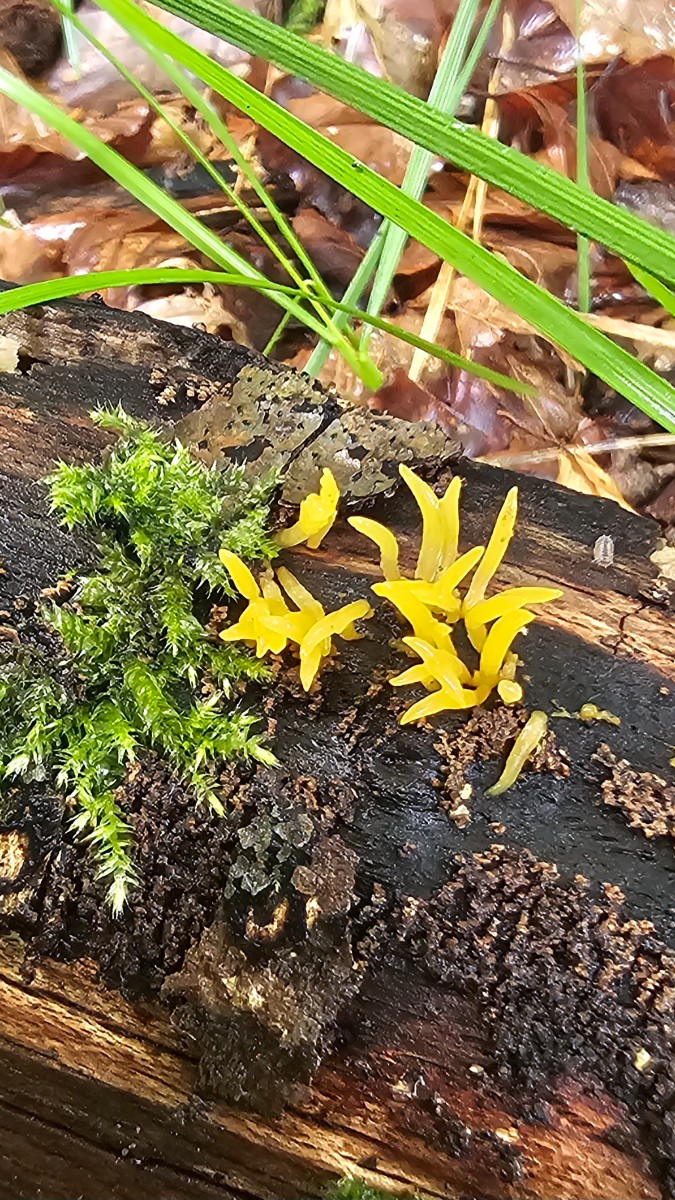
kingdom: Fungi
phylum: Basidiomycota
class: Dacrymycetes
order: Dacrymycetales
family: Dacrymycetaceae
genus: Calocera
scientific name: Calocera cornea
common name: liden guldgaffel
